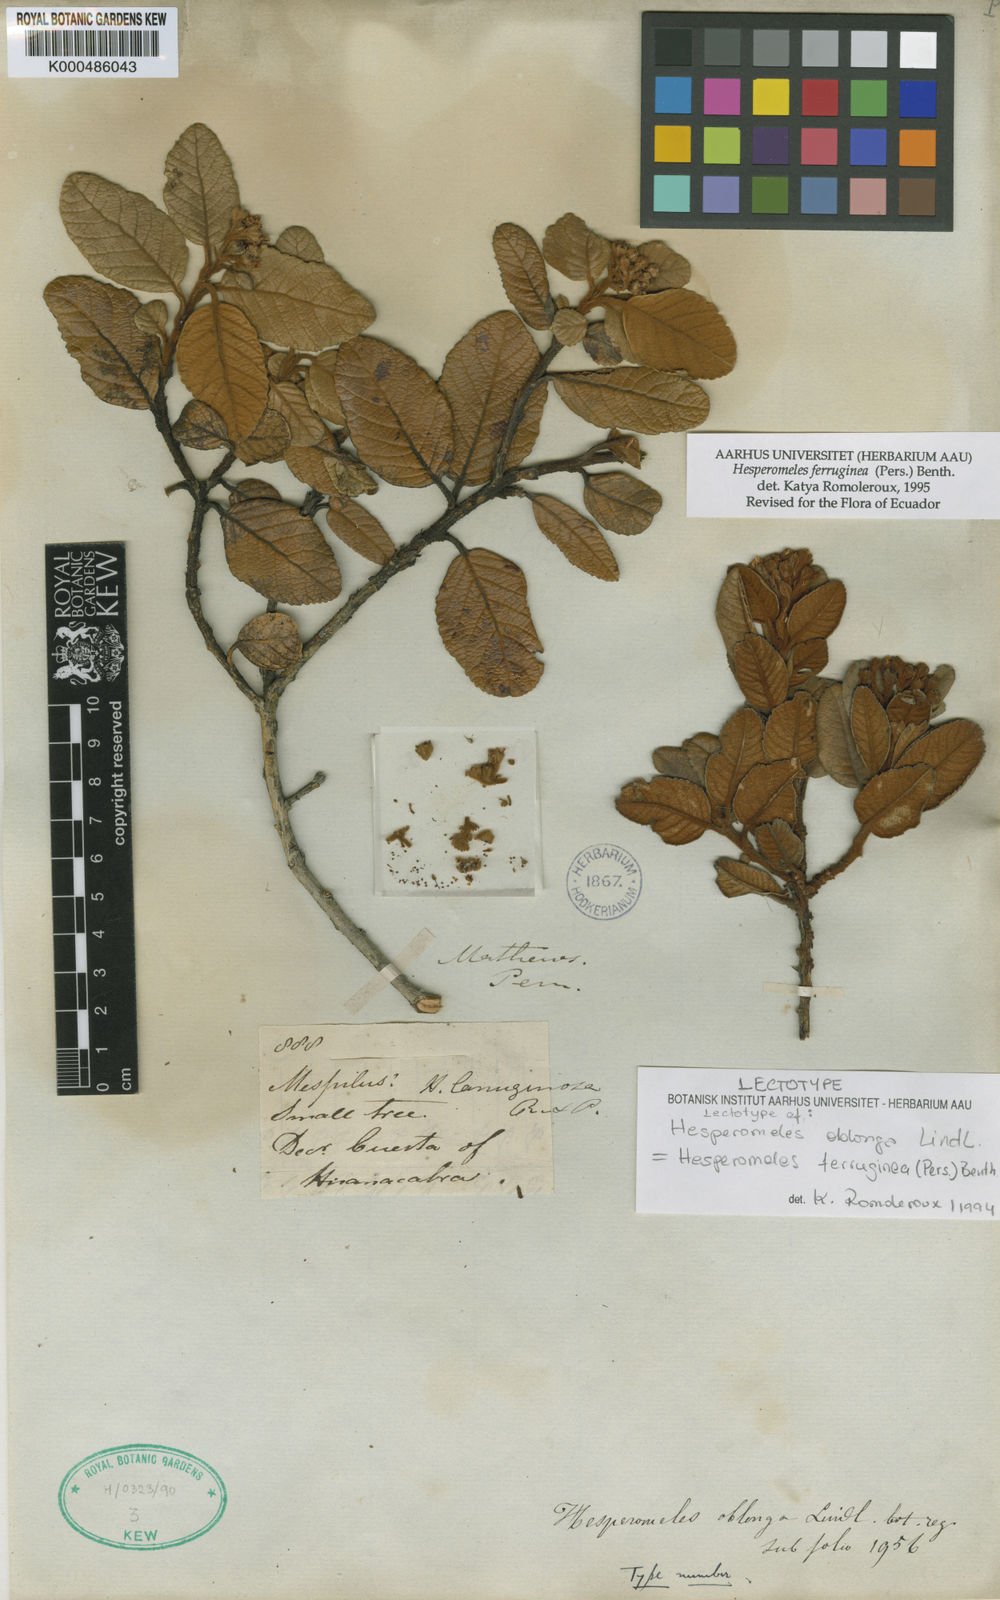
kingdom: Plantae
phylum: Tracheophyta
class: Magnoliopsida
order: Rosales
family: Rosaceae
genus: Hesperomeles
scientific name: Hesperomeles ferruginea
